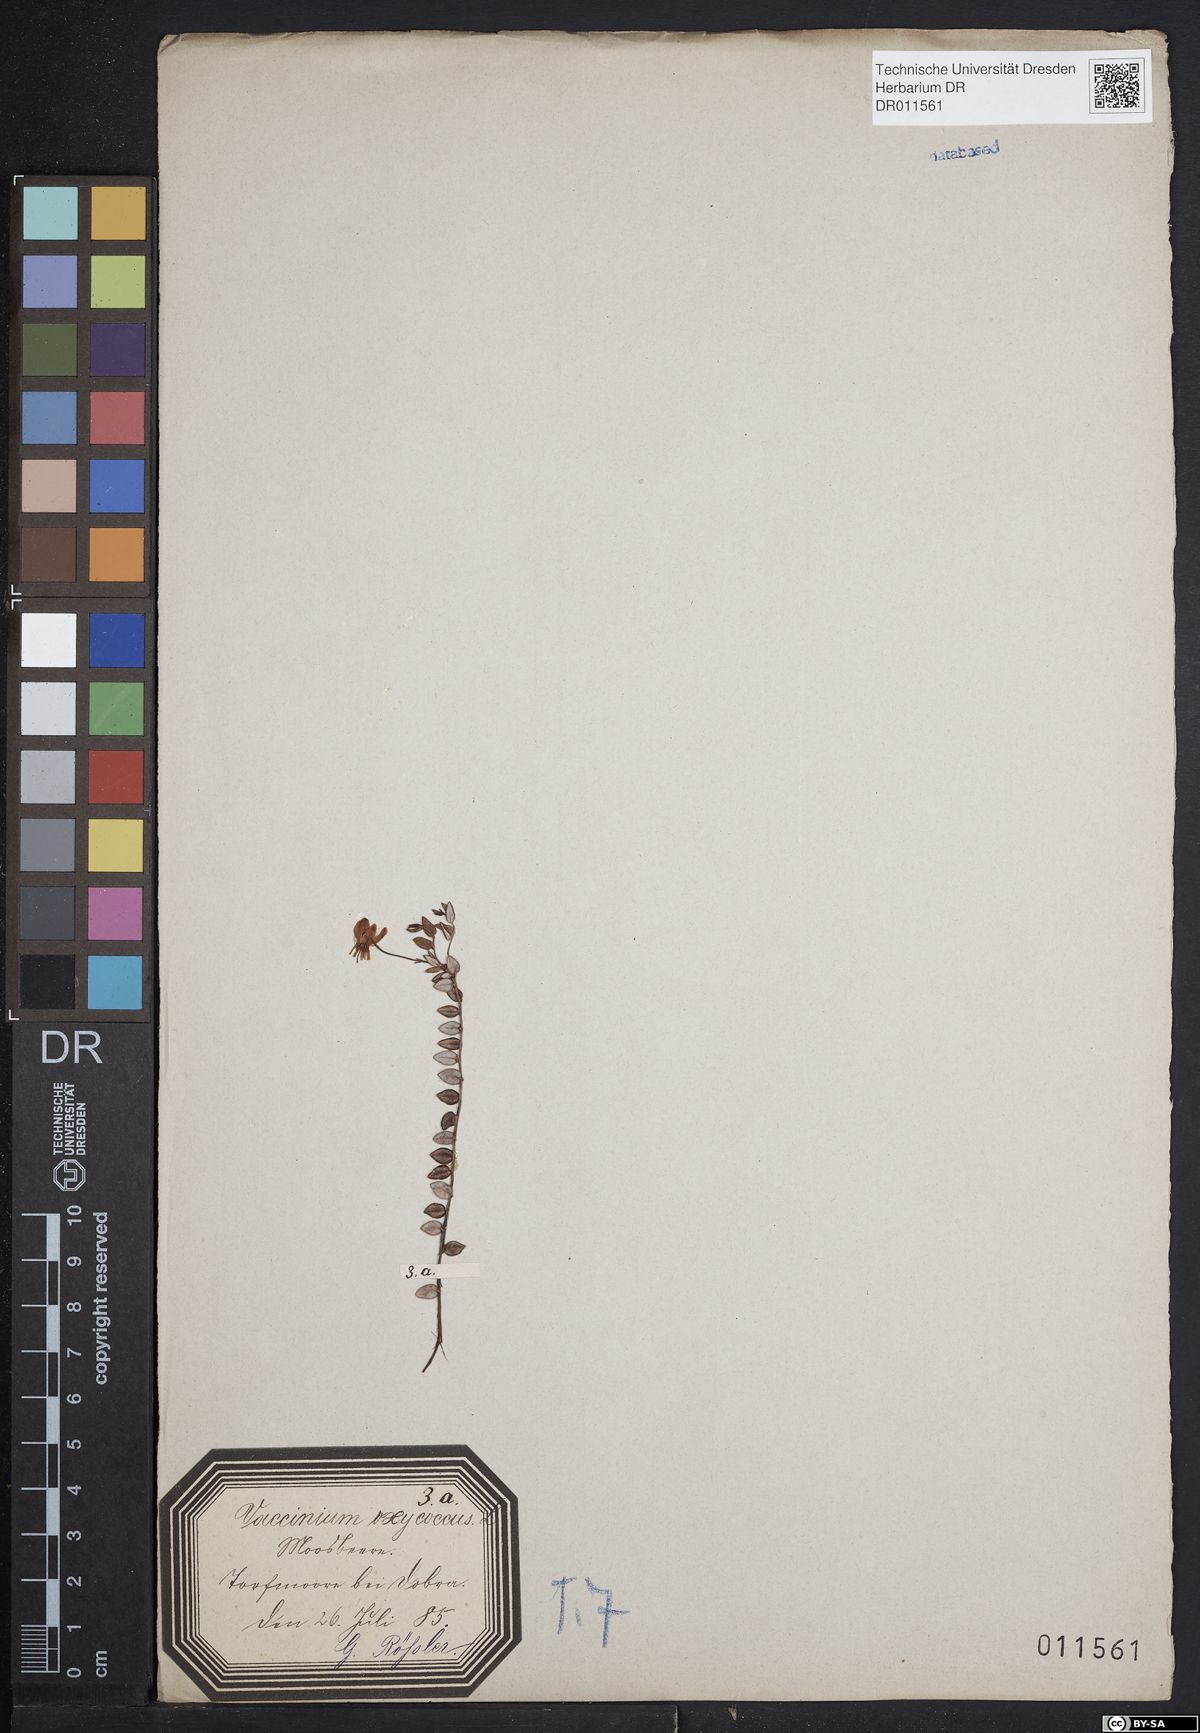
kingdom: Plantae
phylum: Tracheophyta
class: Magnoliopsida
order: Ericales
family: Ericaceae
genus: Vaccinium
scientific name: Vaccinium oxycoccos
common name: Cranberry
